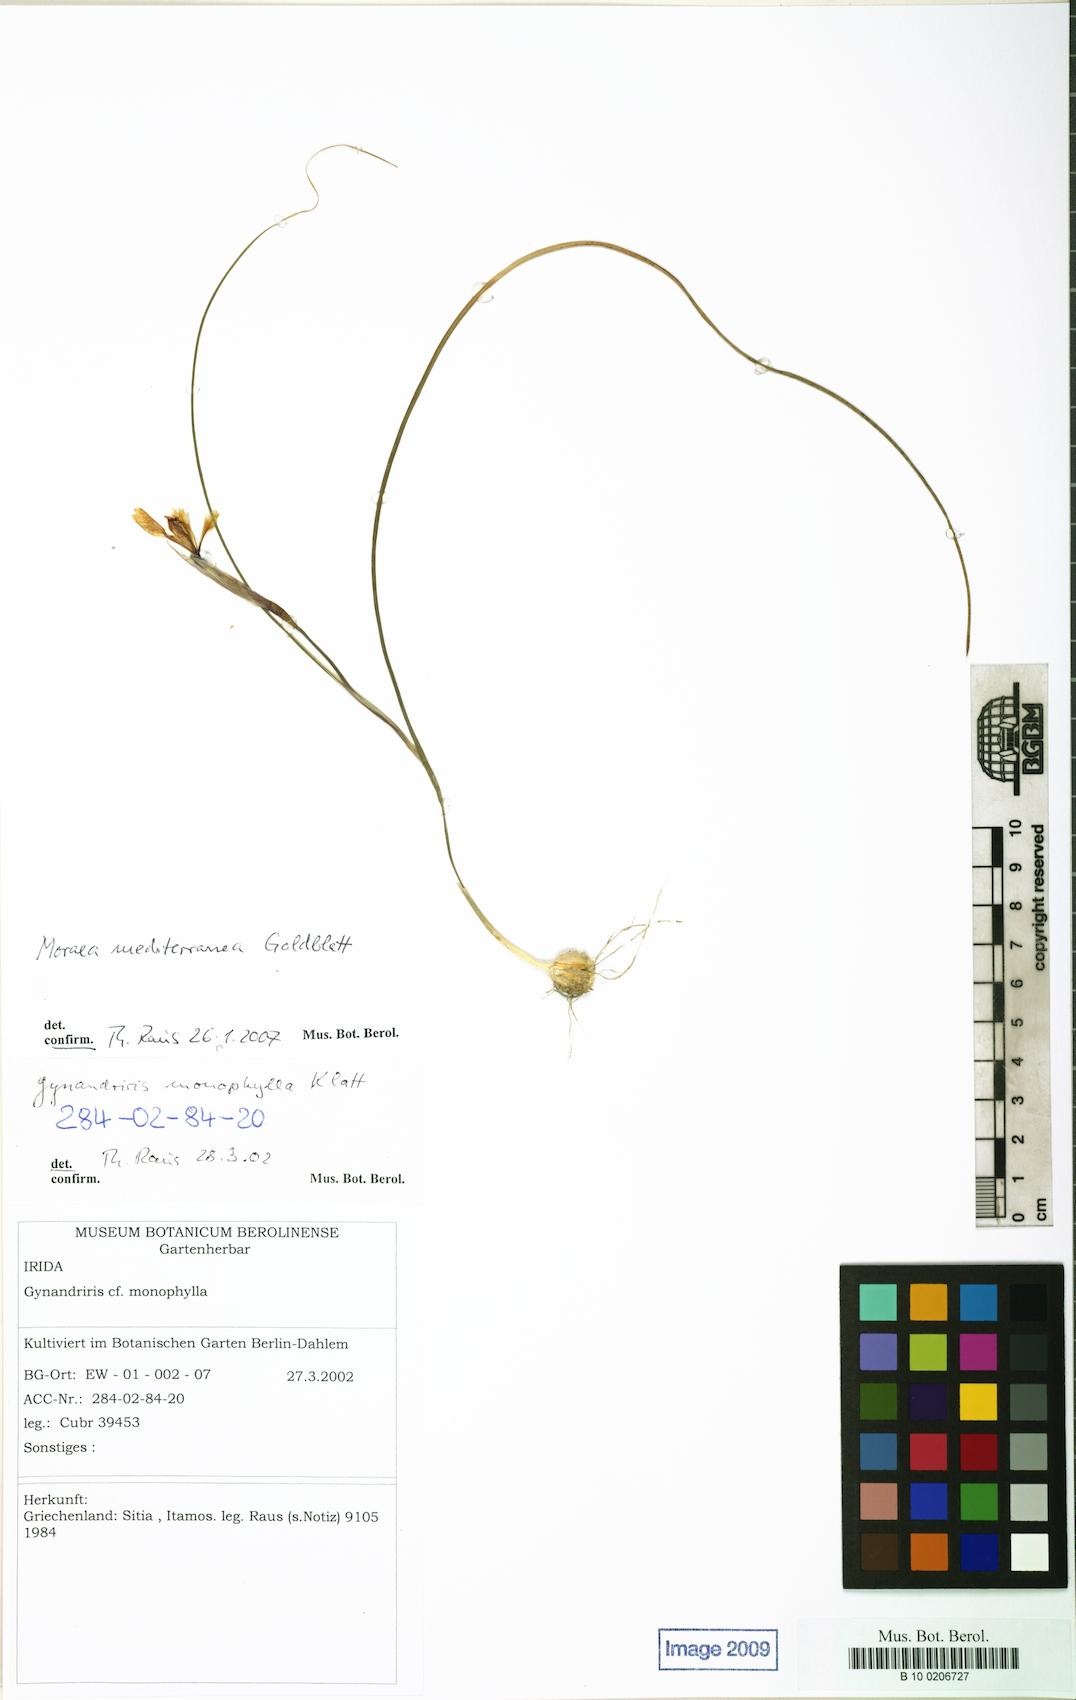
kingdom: Plantae
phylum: Tracheophyta
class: Liliopsida
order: Asparagales
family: Iridaceae
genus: Moraea
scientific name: Moraea mediterranea
